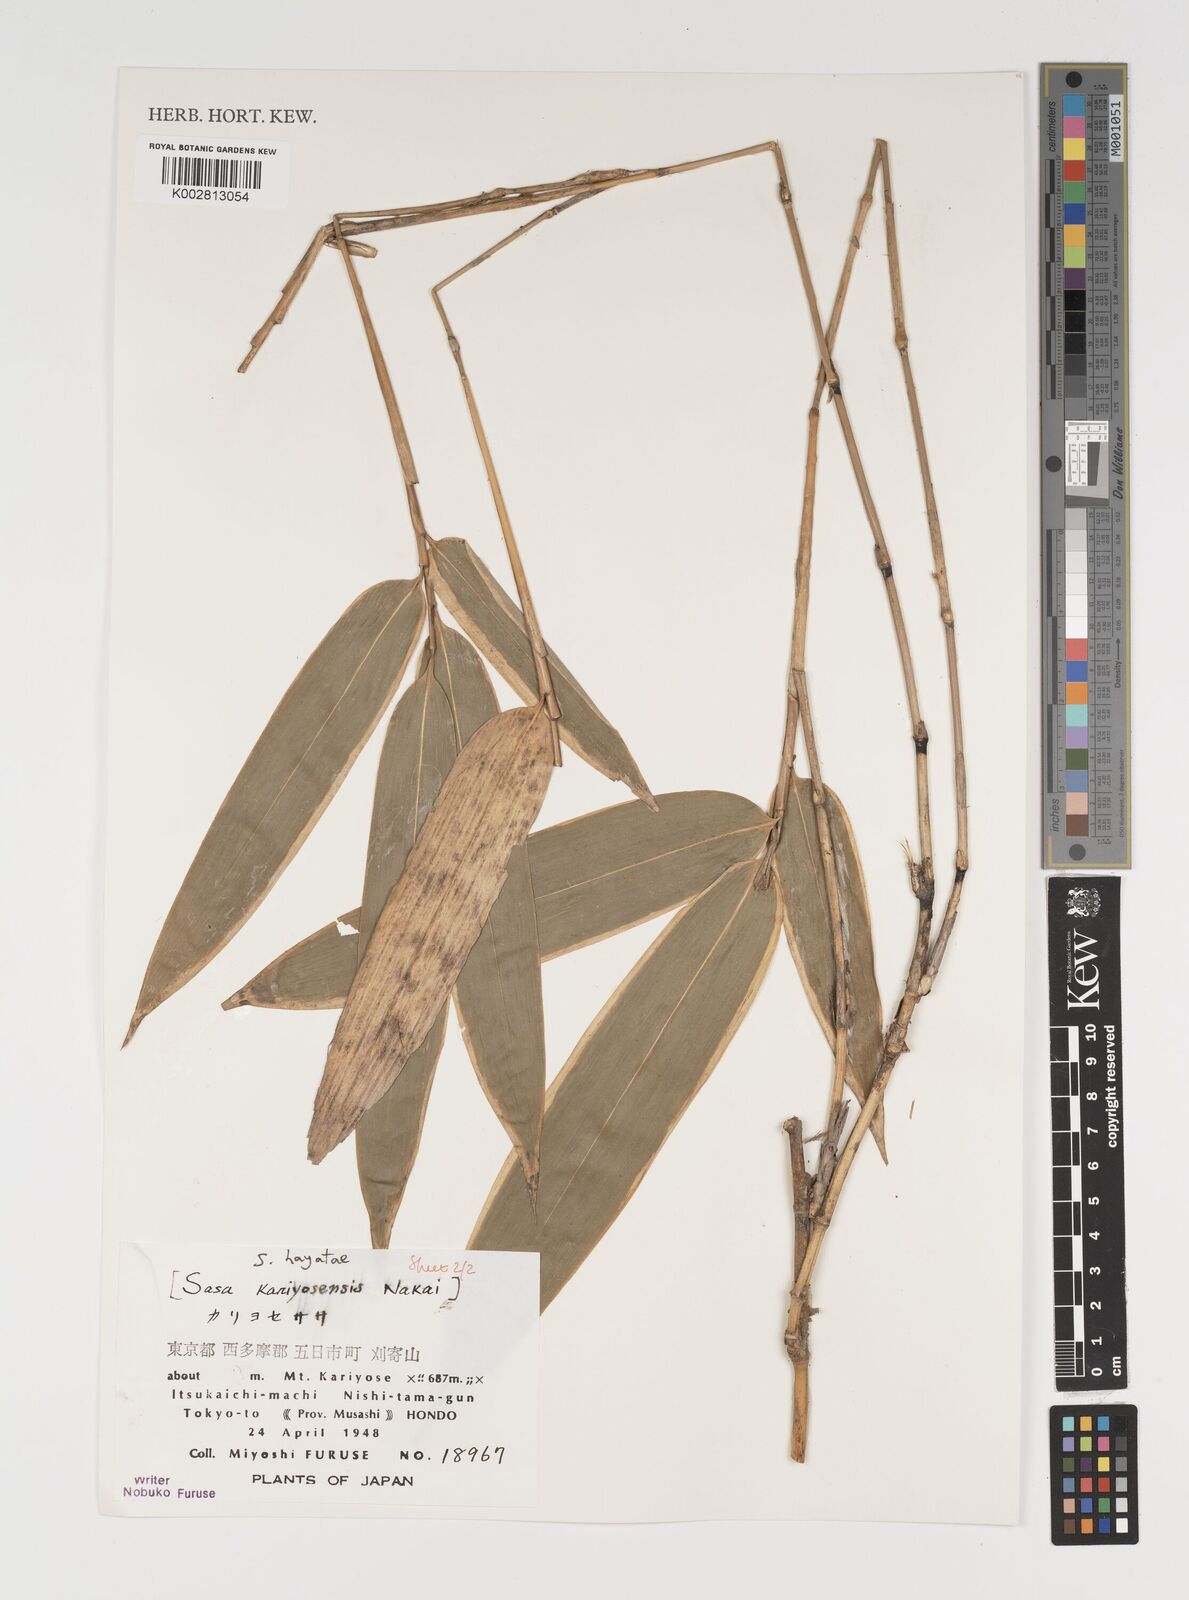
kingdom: Plantae
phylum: Tracheophyta
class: Liliopsida
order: Poales
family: Poaceae
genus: Sasa
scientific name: Sasa hayatae
